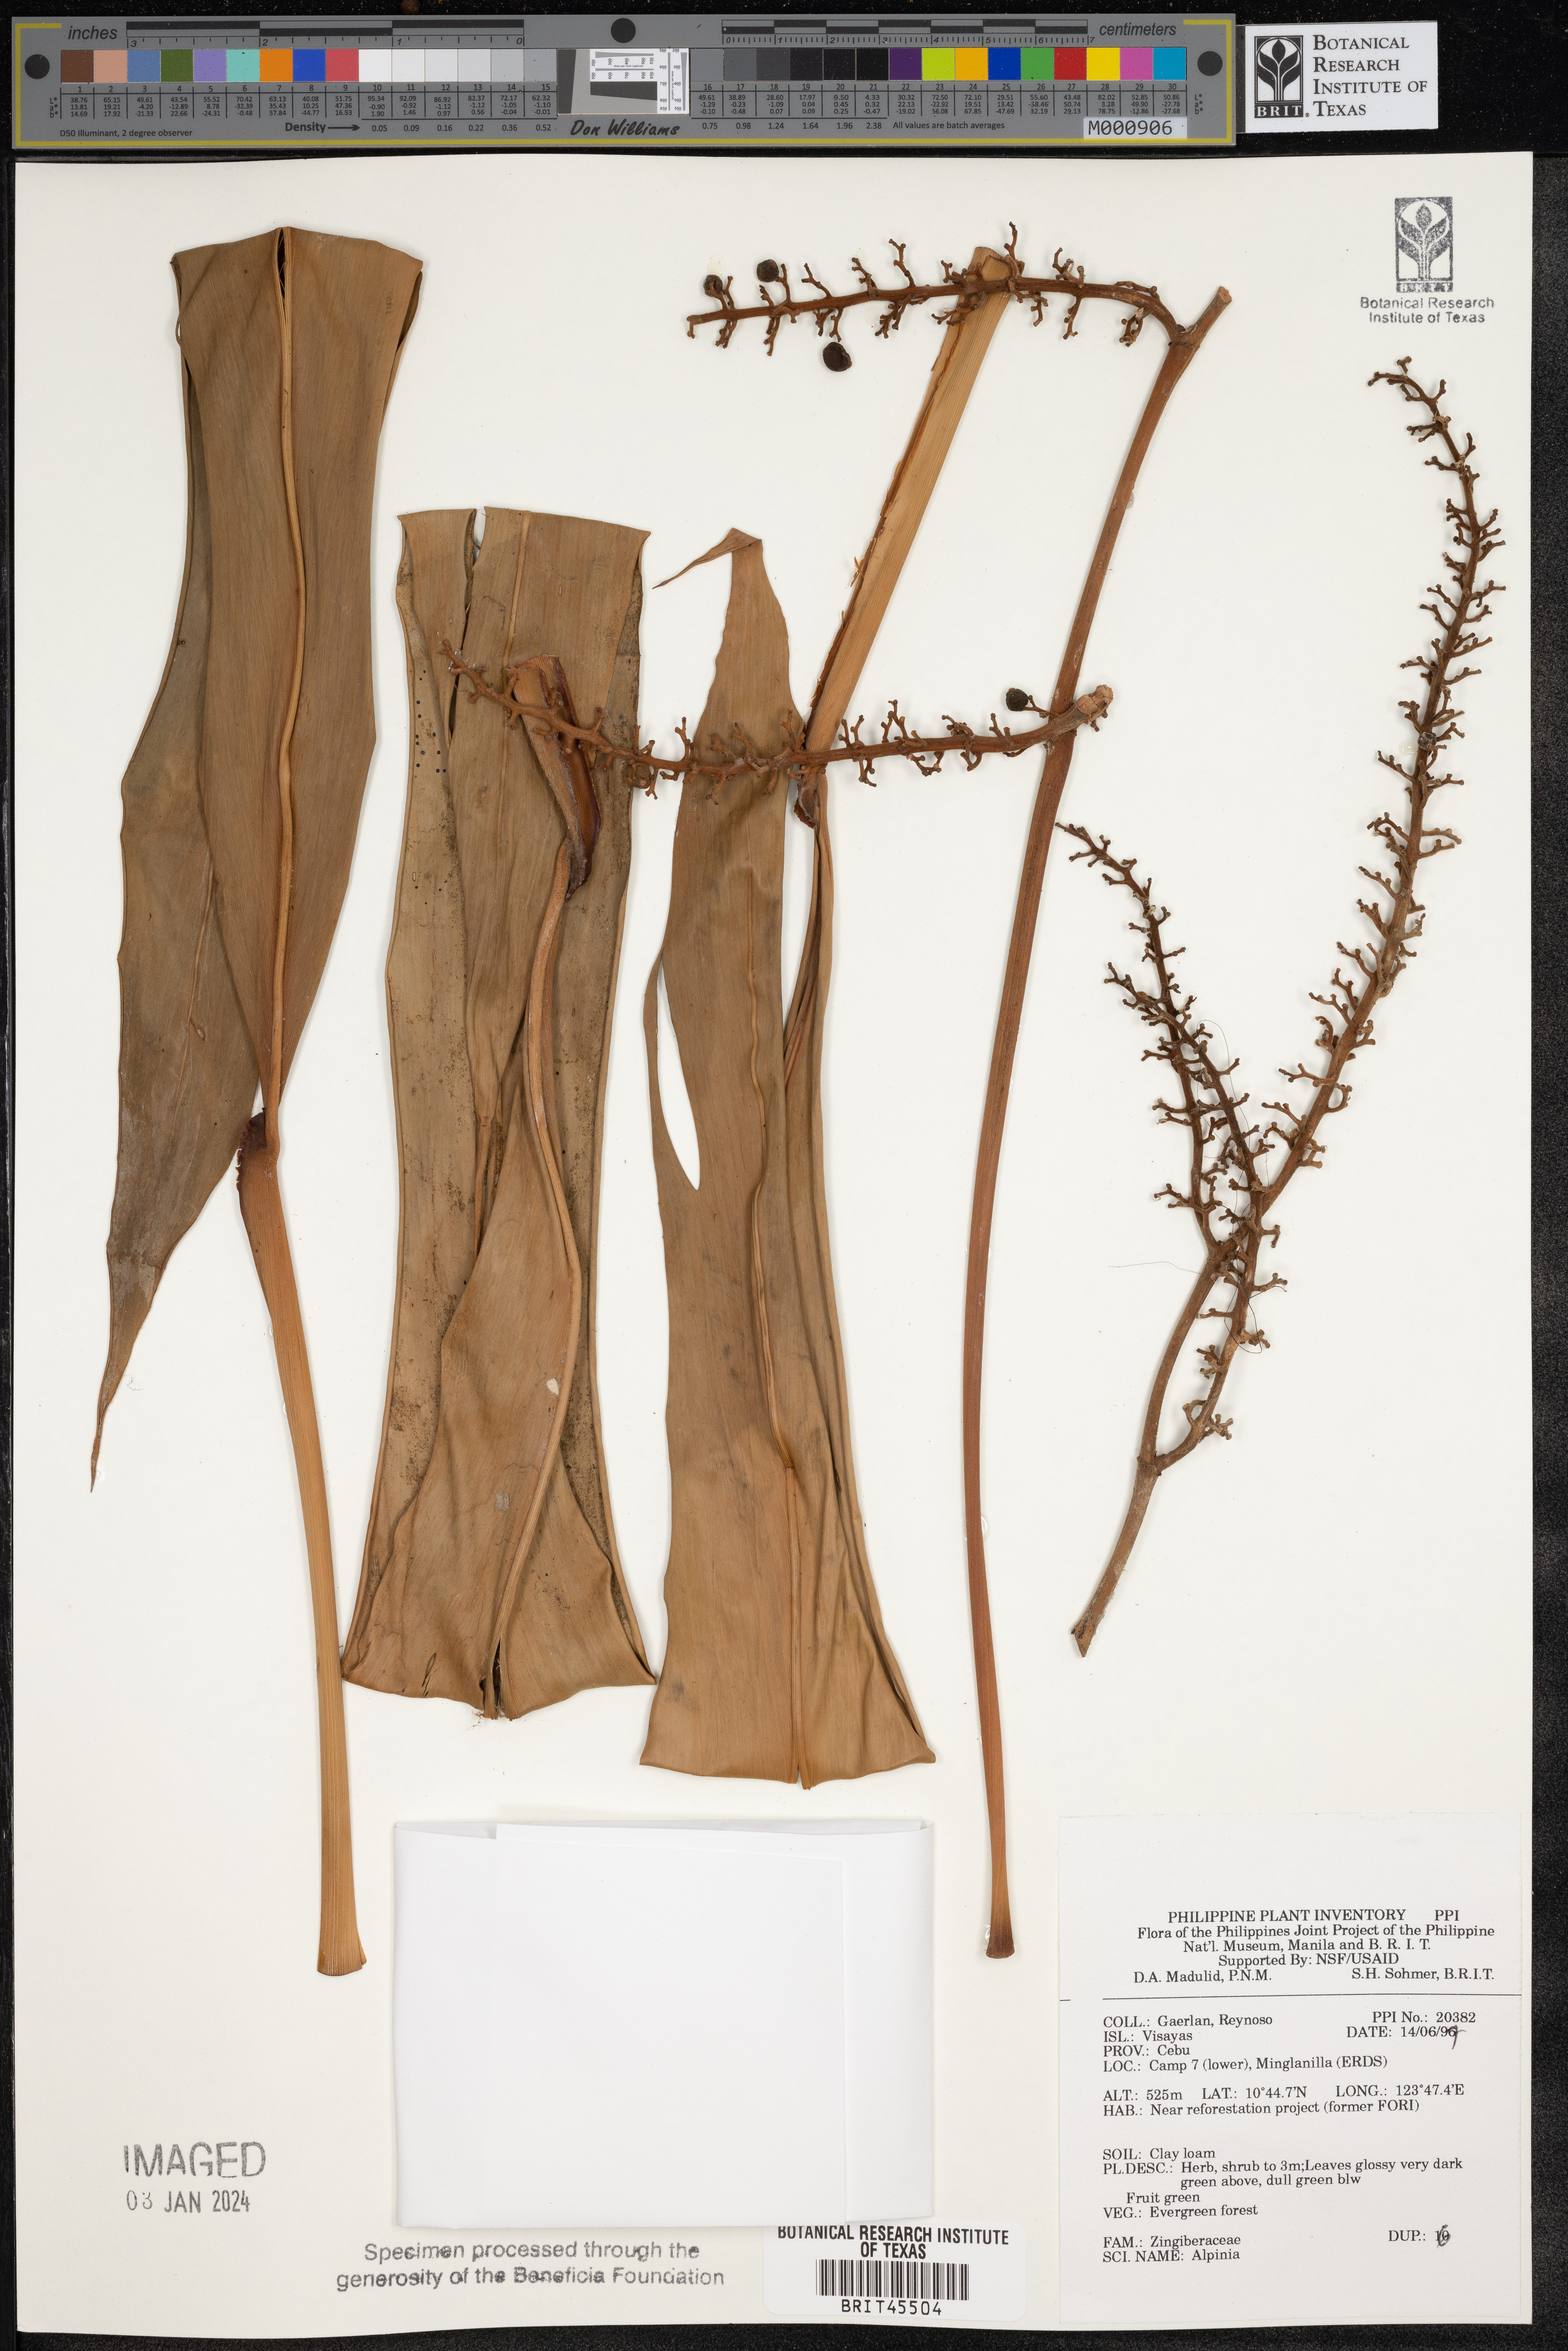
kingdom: Plantae
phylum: Tracheophyta
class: Liliopsida
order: Zingiberales
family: Zingiberaceae
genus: Alpinia
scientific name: Alpinia
